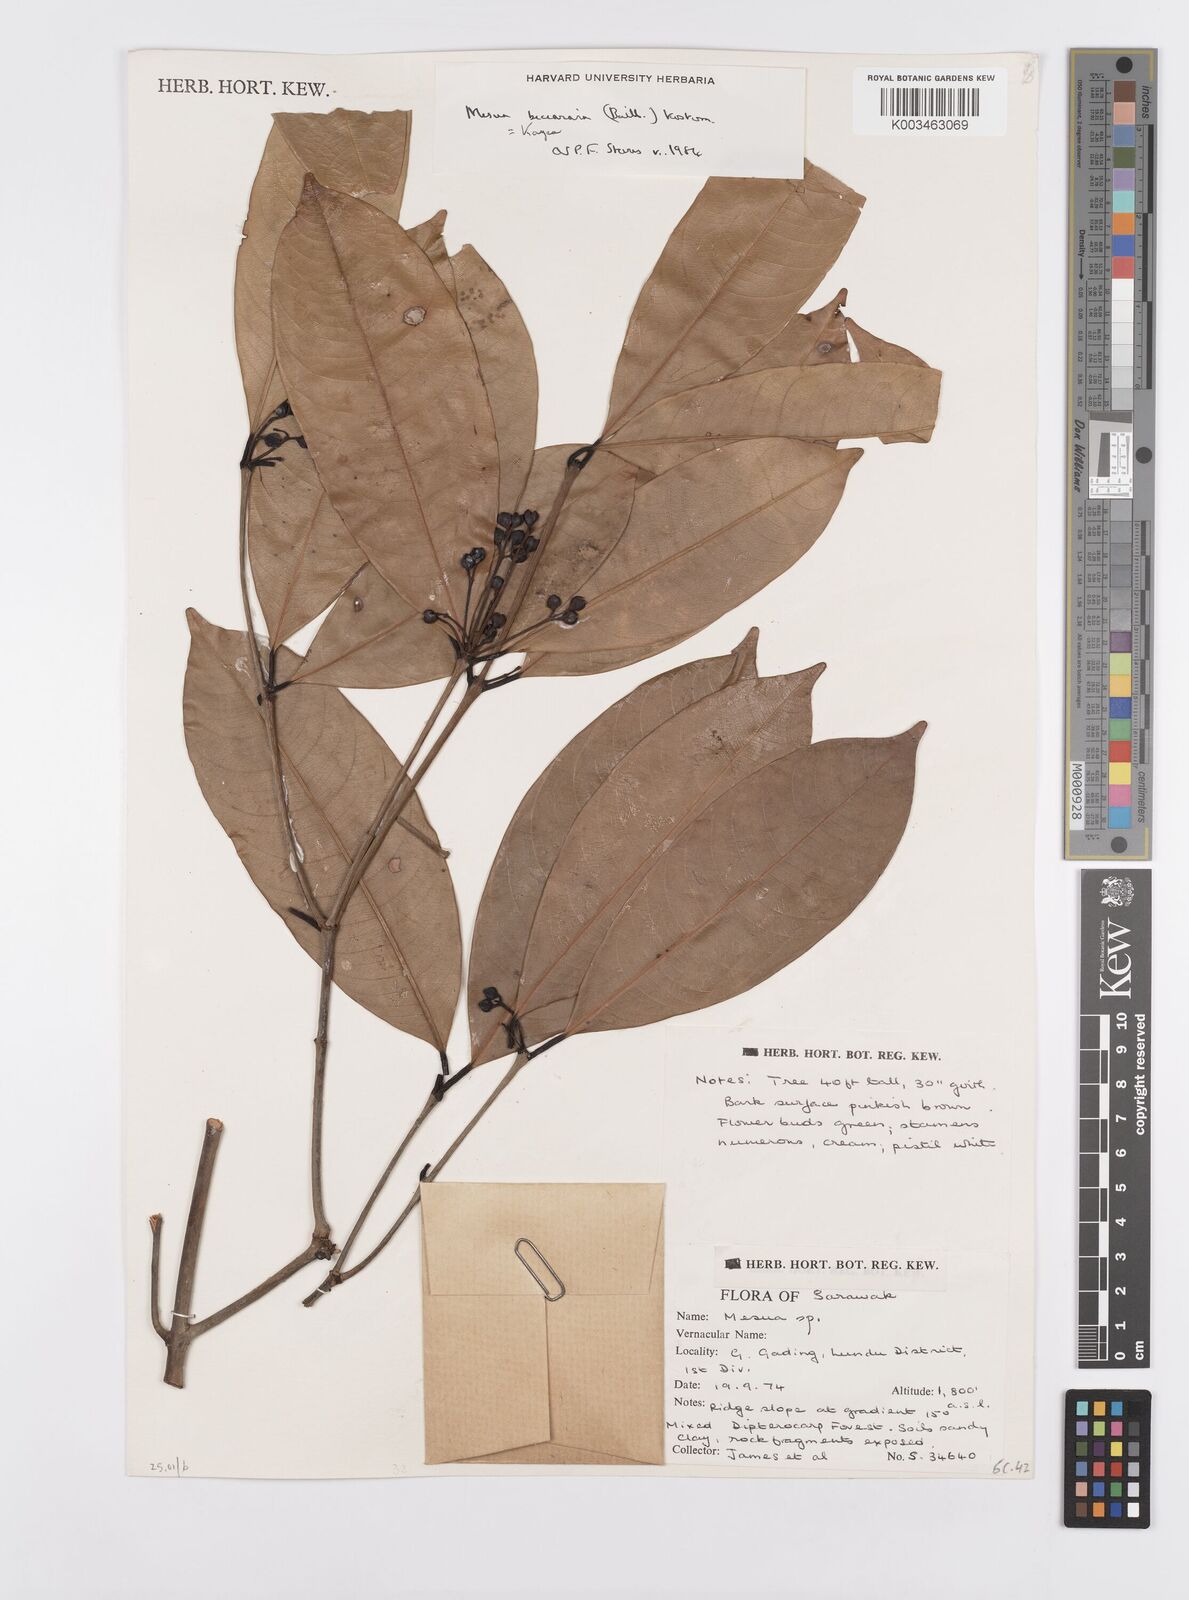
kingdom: Plantae
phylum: Tracheophyta
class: Magnoliopsida
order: Malpighiales
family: Calophyllaceae
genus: Kayea
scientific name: Kayea beccariana
